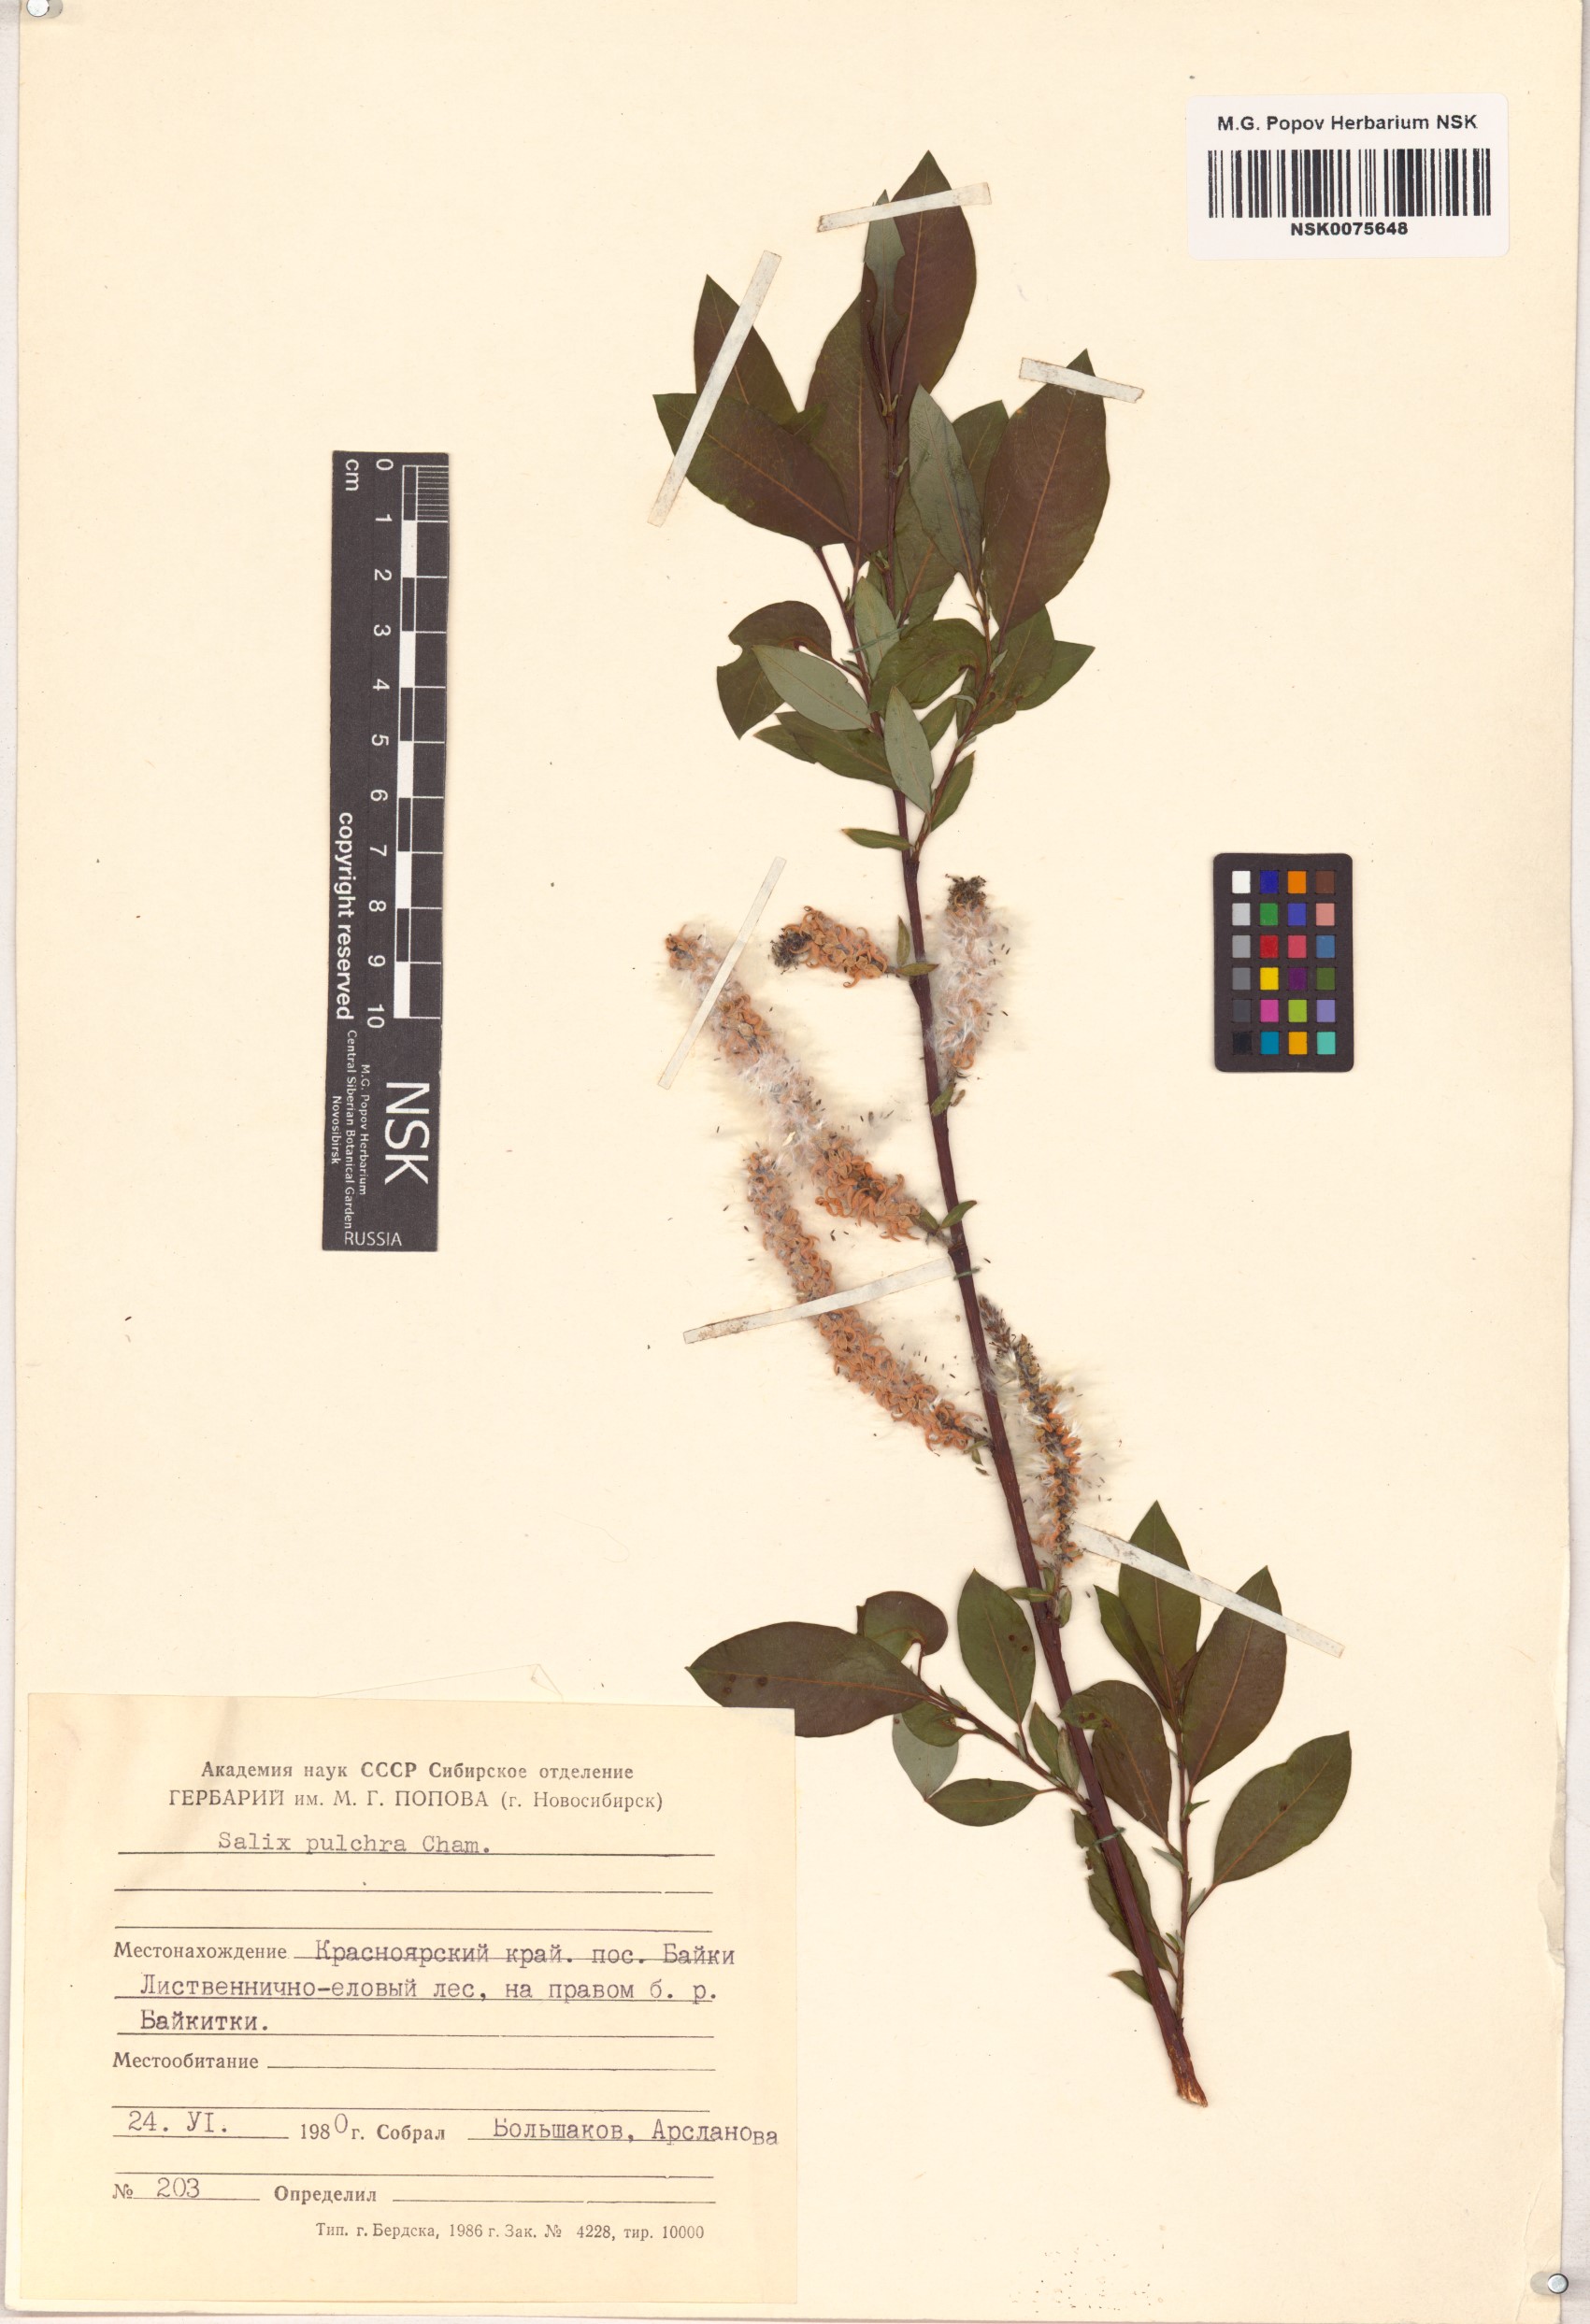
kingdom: Plantae
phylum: Tracheophyta
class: Magnoliopsida
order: Malpighiales
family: Salicaceae
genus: Salix
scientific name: Salix pulchra
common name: Diamond-leaved willow
